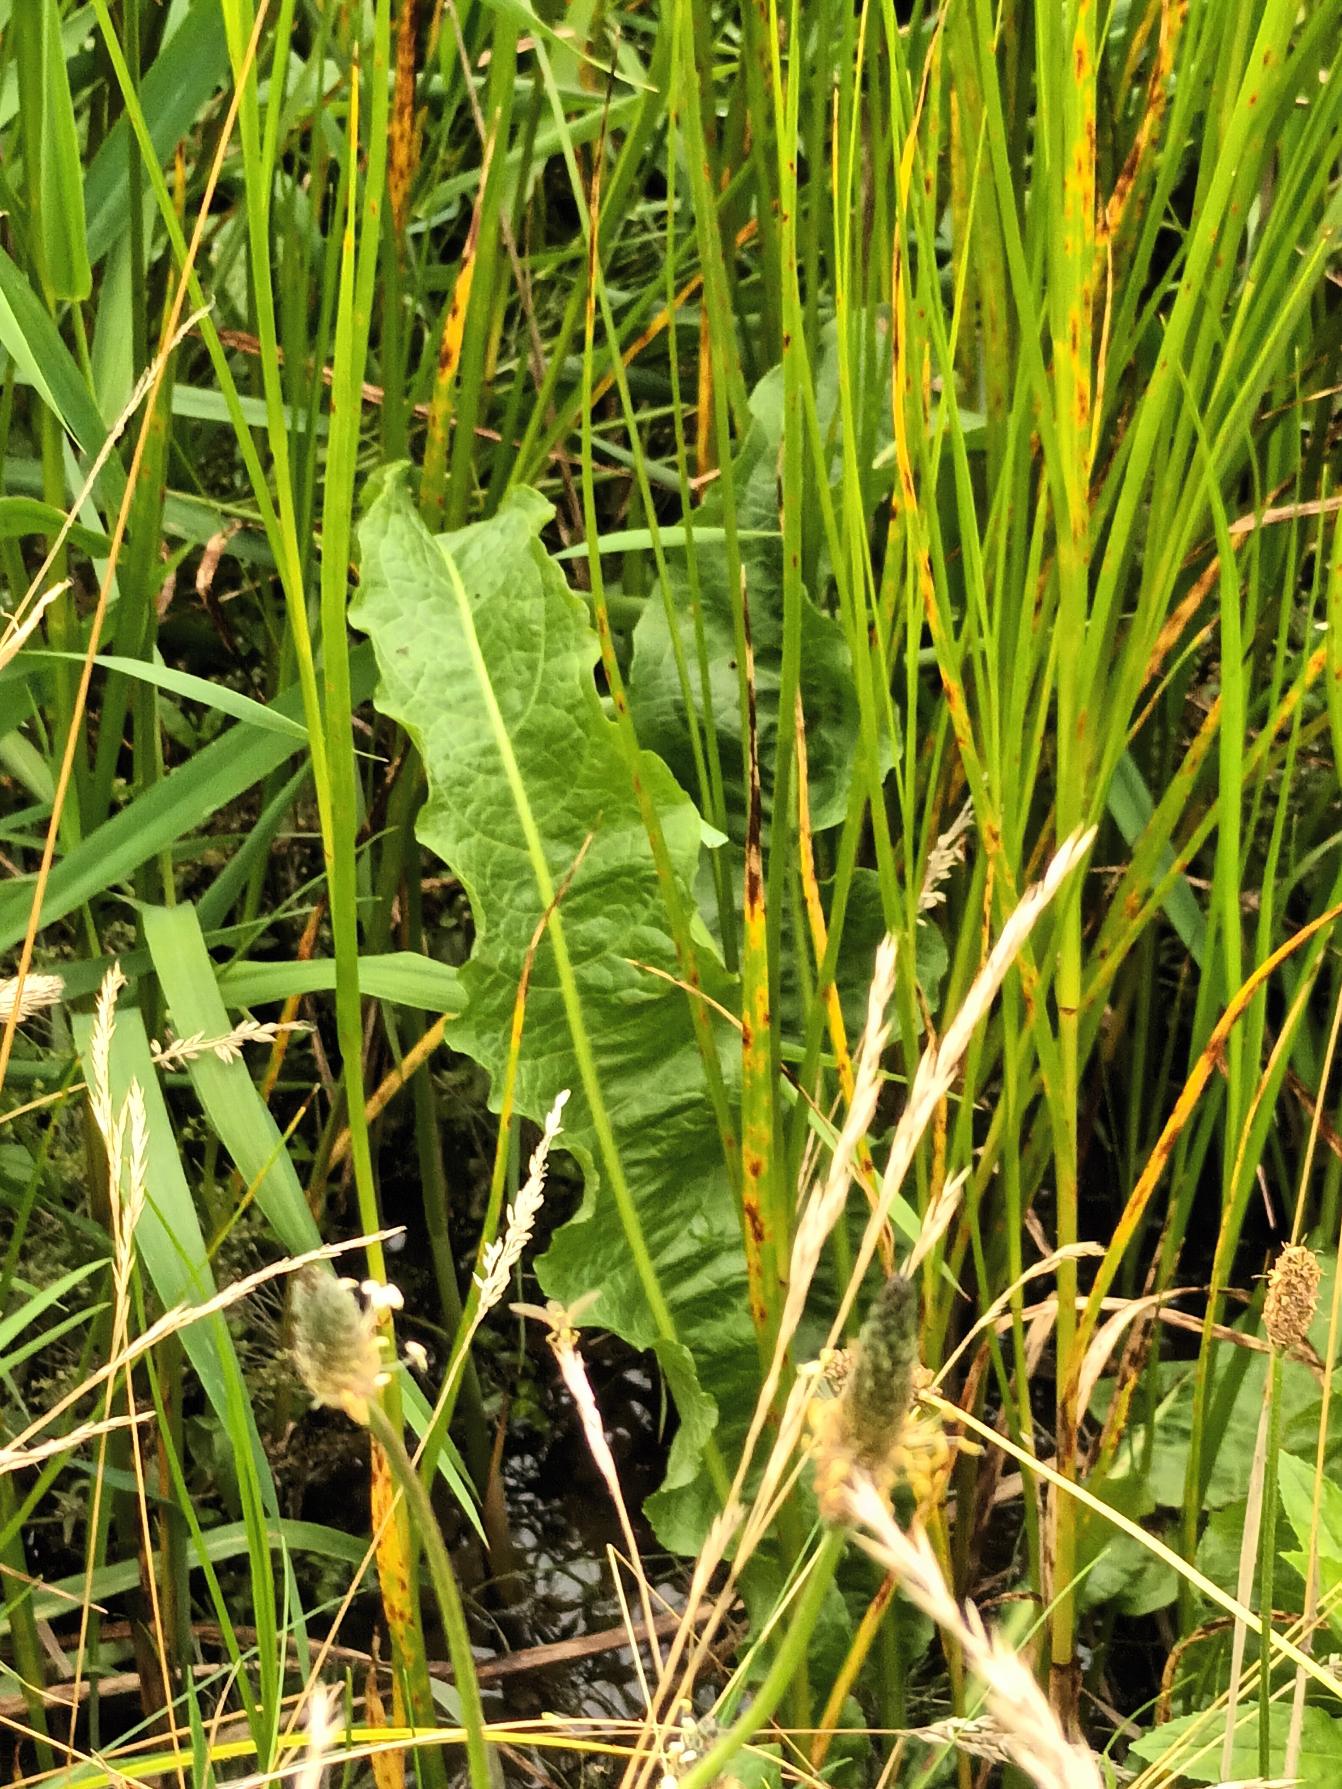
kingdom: Plantae
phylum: Tracheophyta
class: Magnoliopsida
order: Caryophyllales
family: Polygonaceae
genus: Rumex
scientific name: Rumex hydrolapathum
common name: Vand-skræppe
